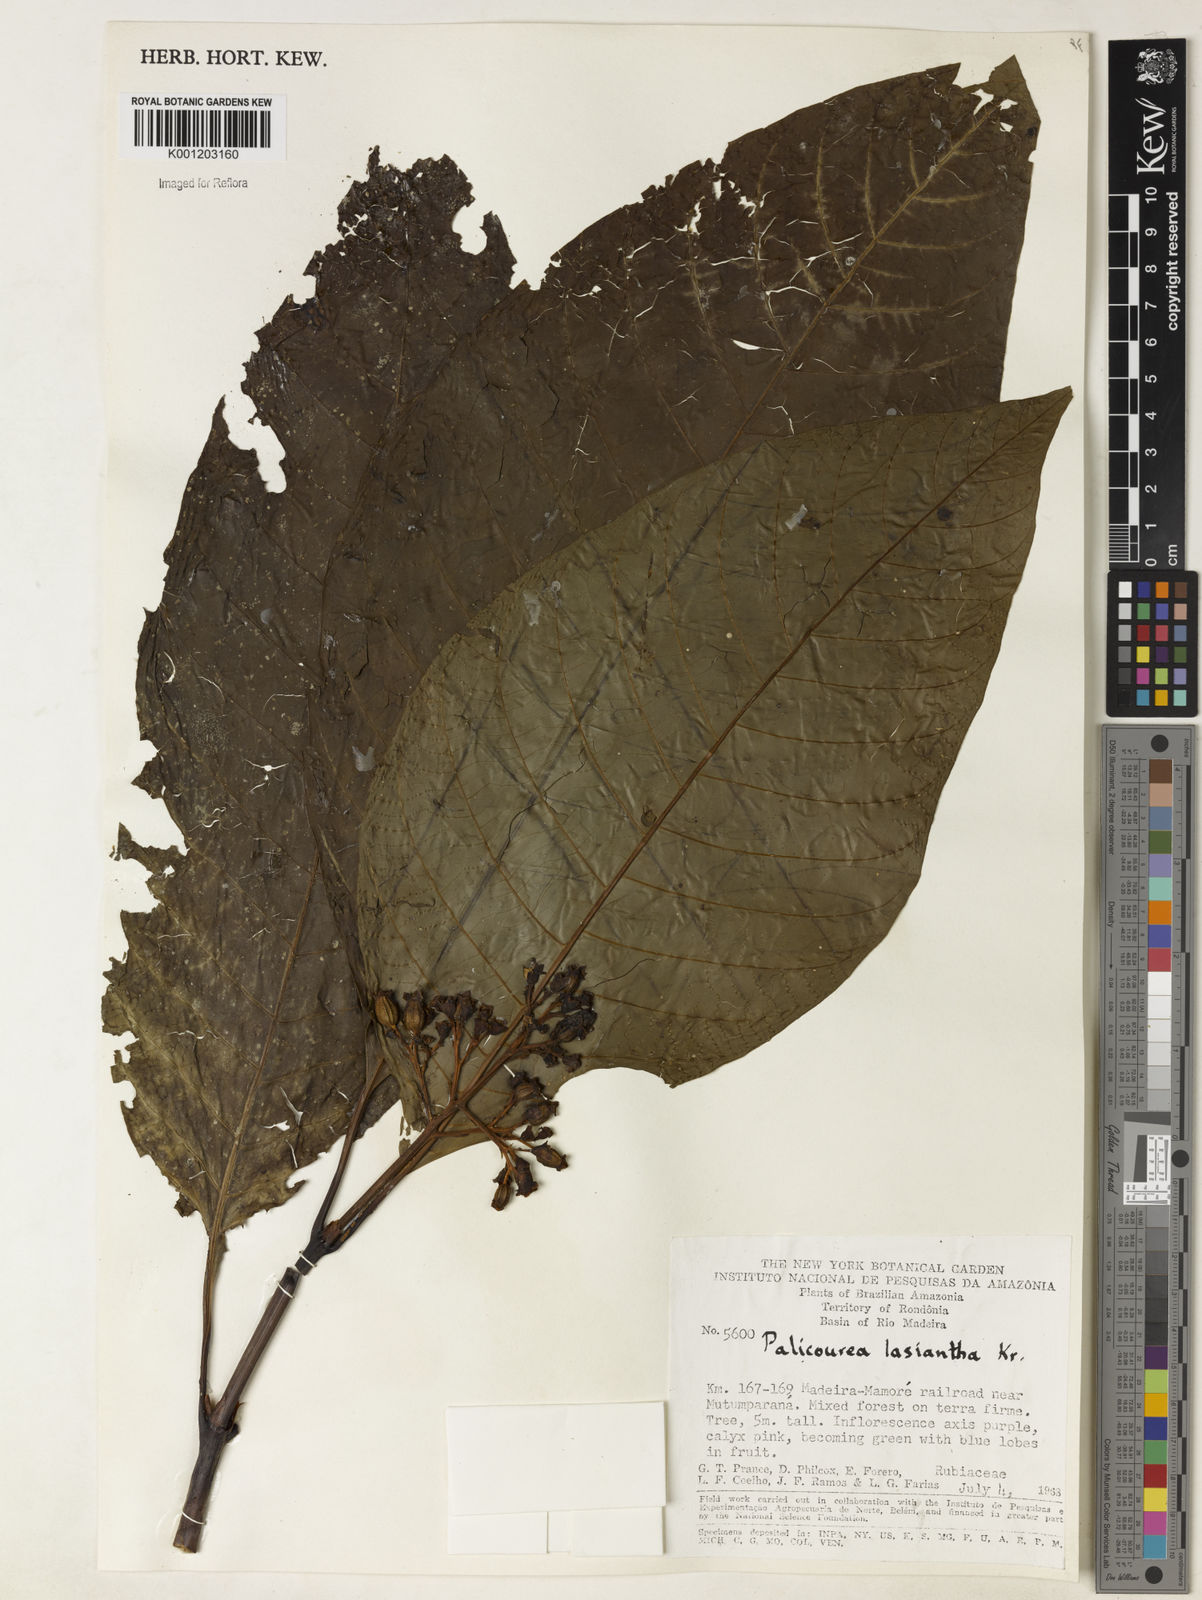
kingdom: Plantae
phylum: Tracheophyta
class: Magnoliopsida
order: Gentianales
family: Rubiaceae
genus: Palicourea
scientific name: Palicourea lasiantha
